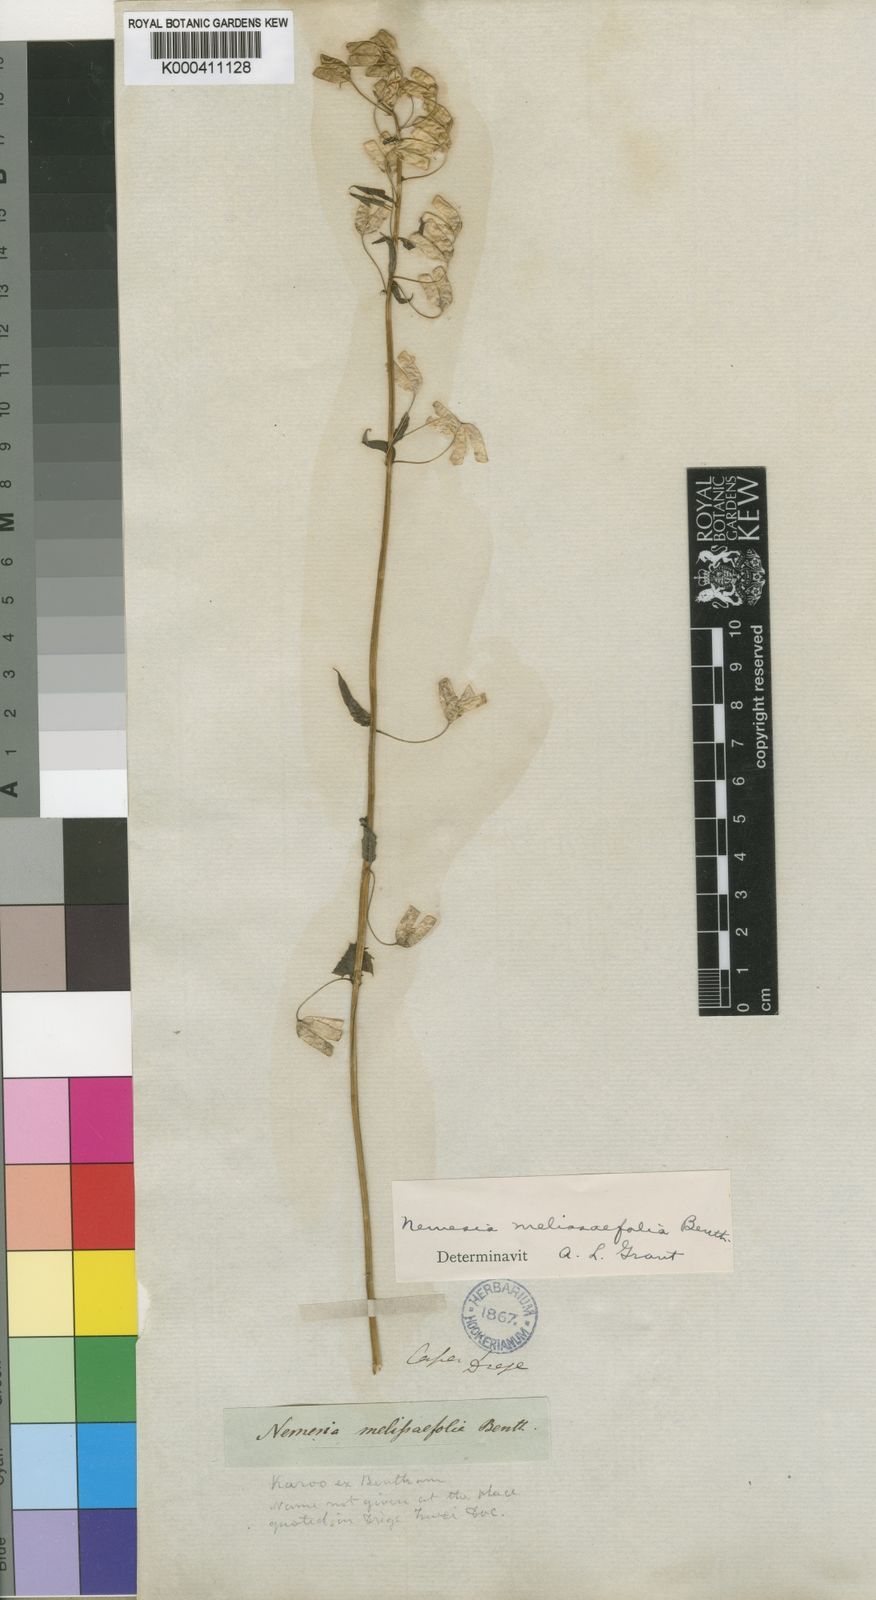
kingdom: Plantae
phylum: Tracheophyta
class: Magnoliopsida
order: Lamiales
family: Scrophulariaceae
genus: Nemesia
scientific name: Nemesia melissifolia
